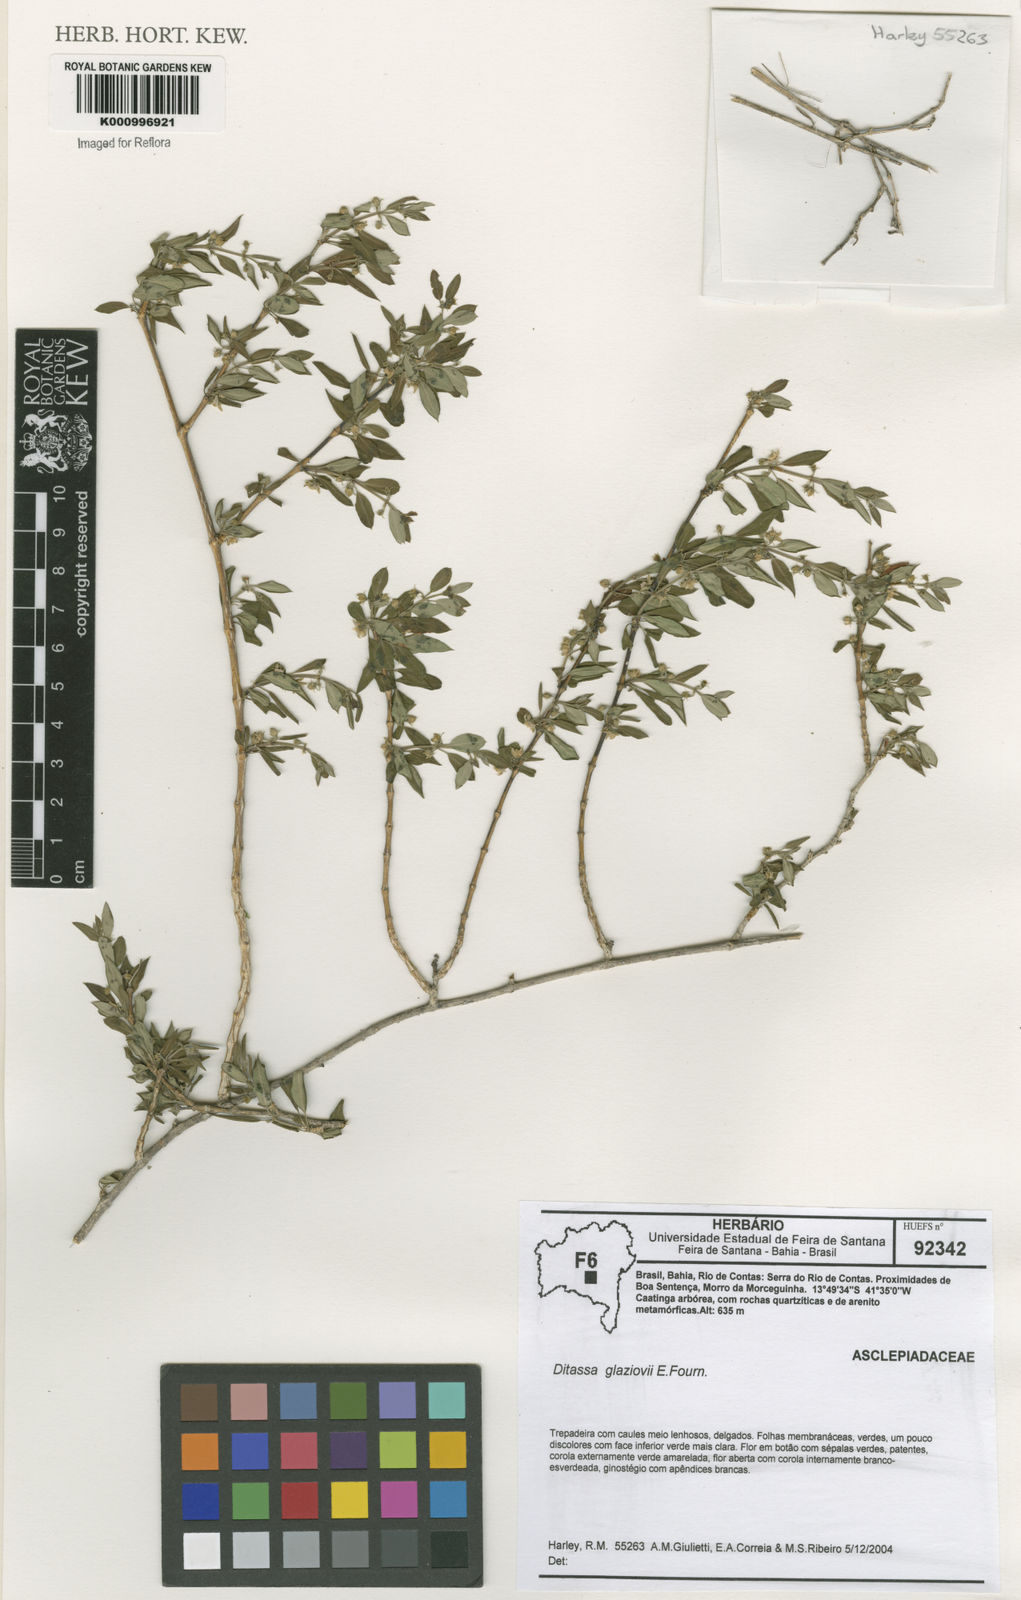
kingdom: Plantae
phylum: Tracheophyta
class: Magnoliopsida
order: Gentianales
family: Apocynaceae
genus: Ditassa
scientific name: Ditassa
